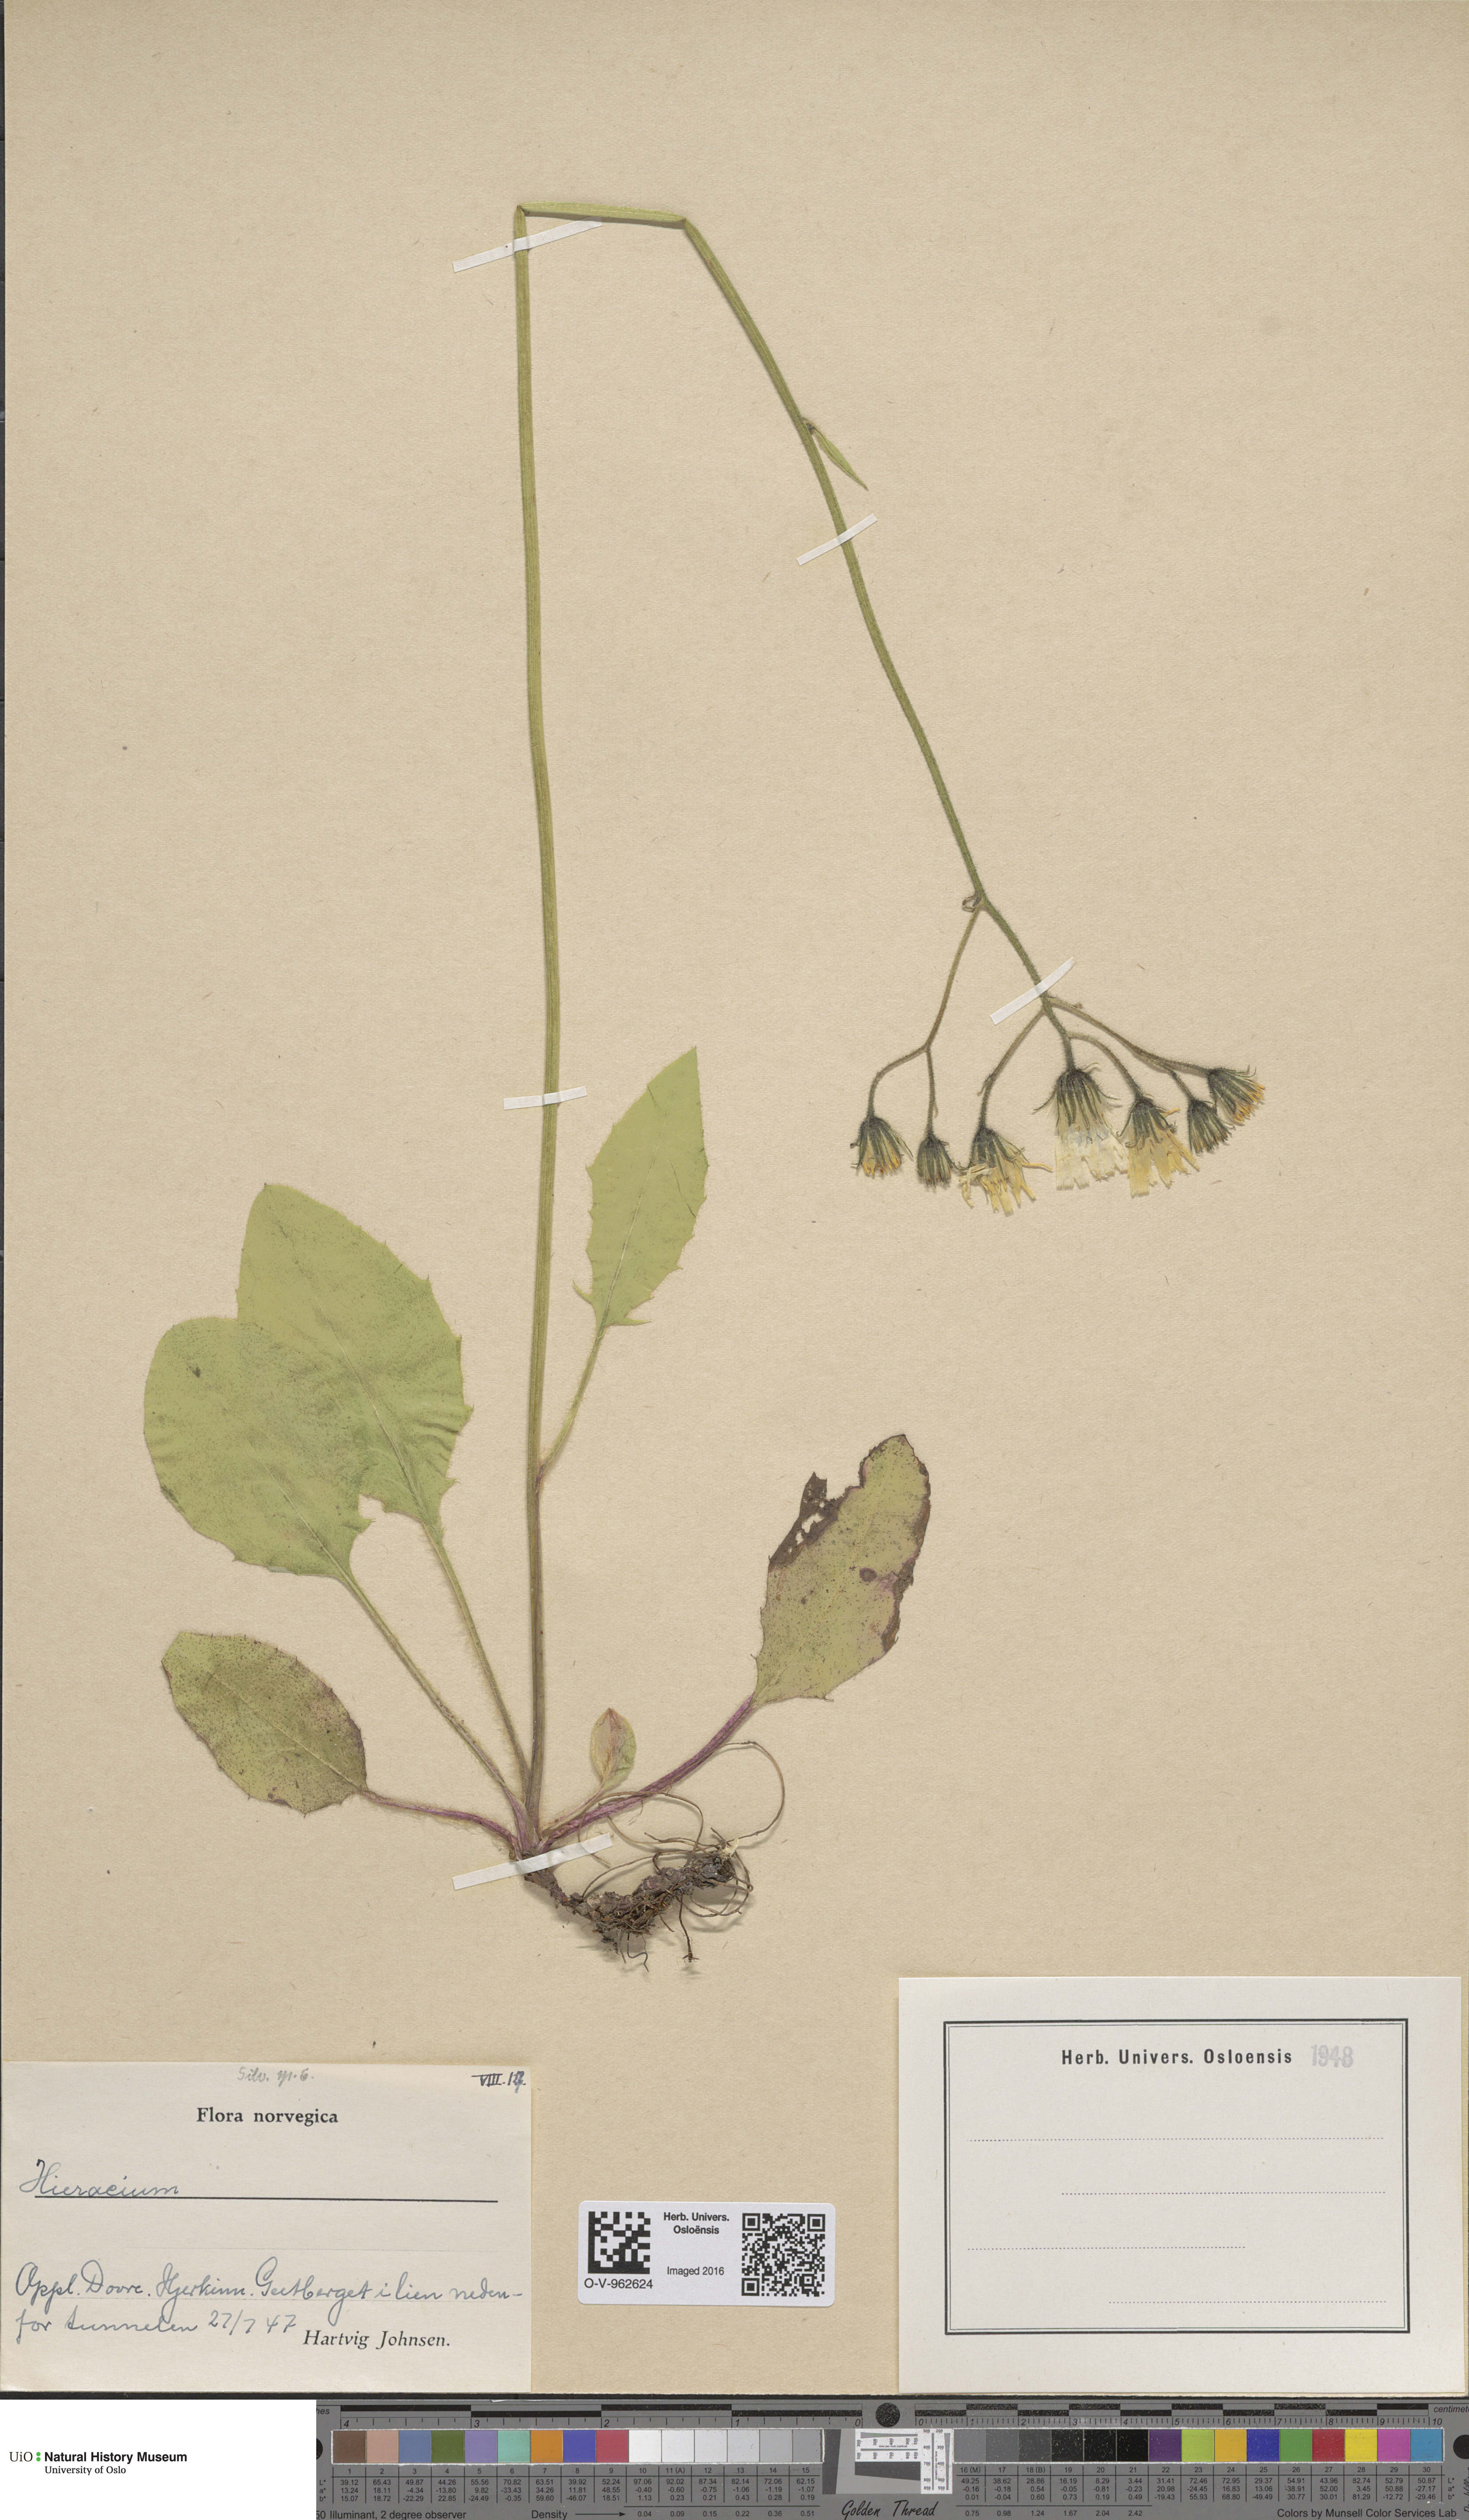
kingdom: Plantae
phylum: Tracheophyta
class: Magnoliopsida
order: Asterales
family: Asteraceae
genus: Hieracium
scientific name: Hieracium
